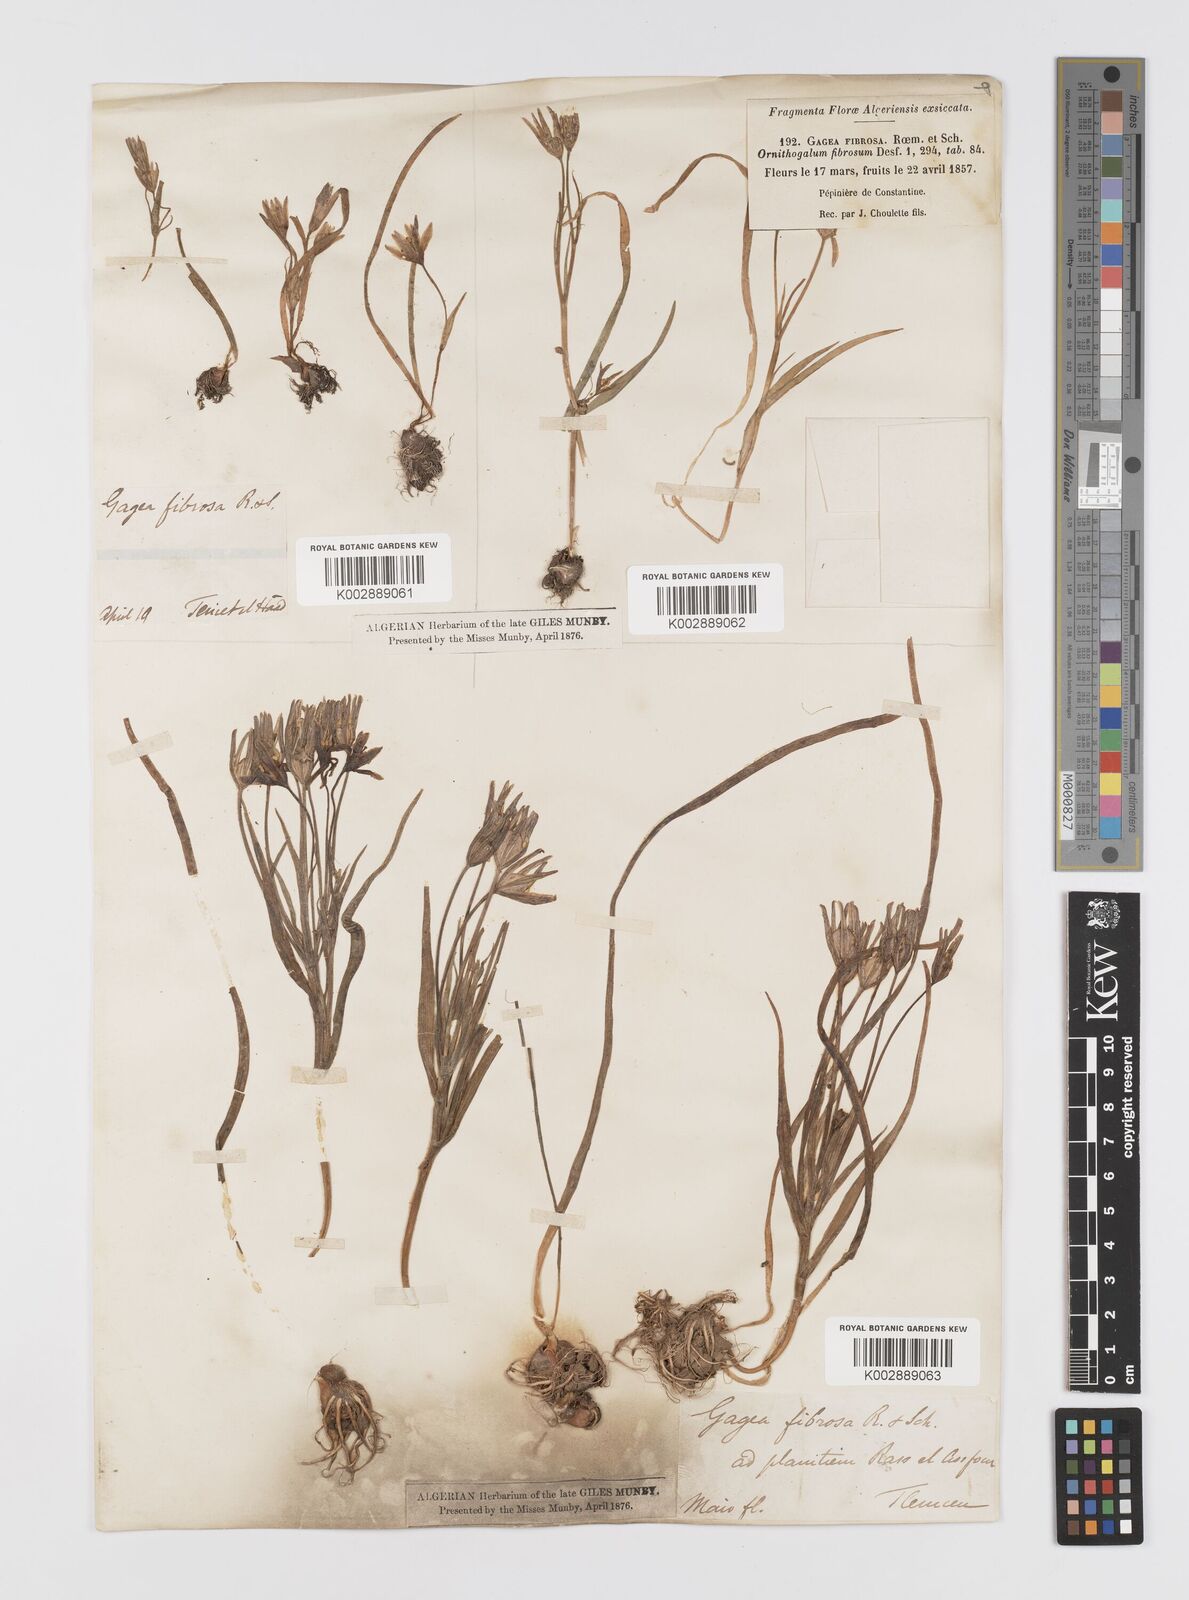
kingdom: Plantae
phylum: Tracheophyta
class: Liliopsida
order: Liliales
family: Liliaceae
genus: Gagea
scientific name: Gagea fibrosa
